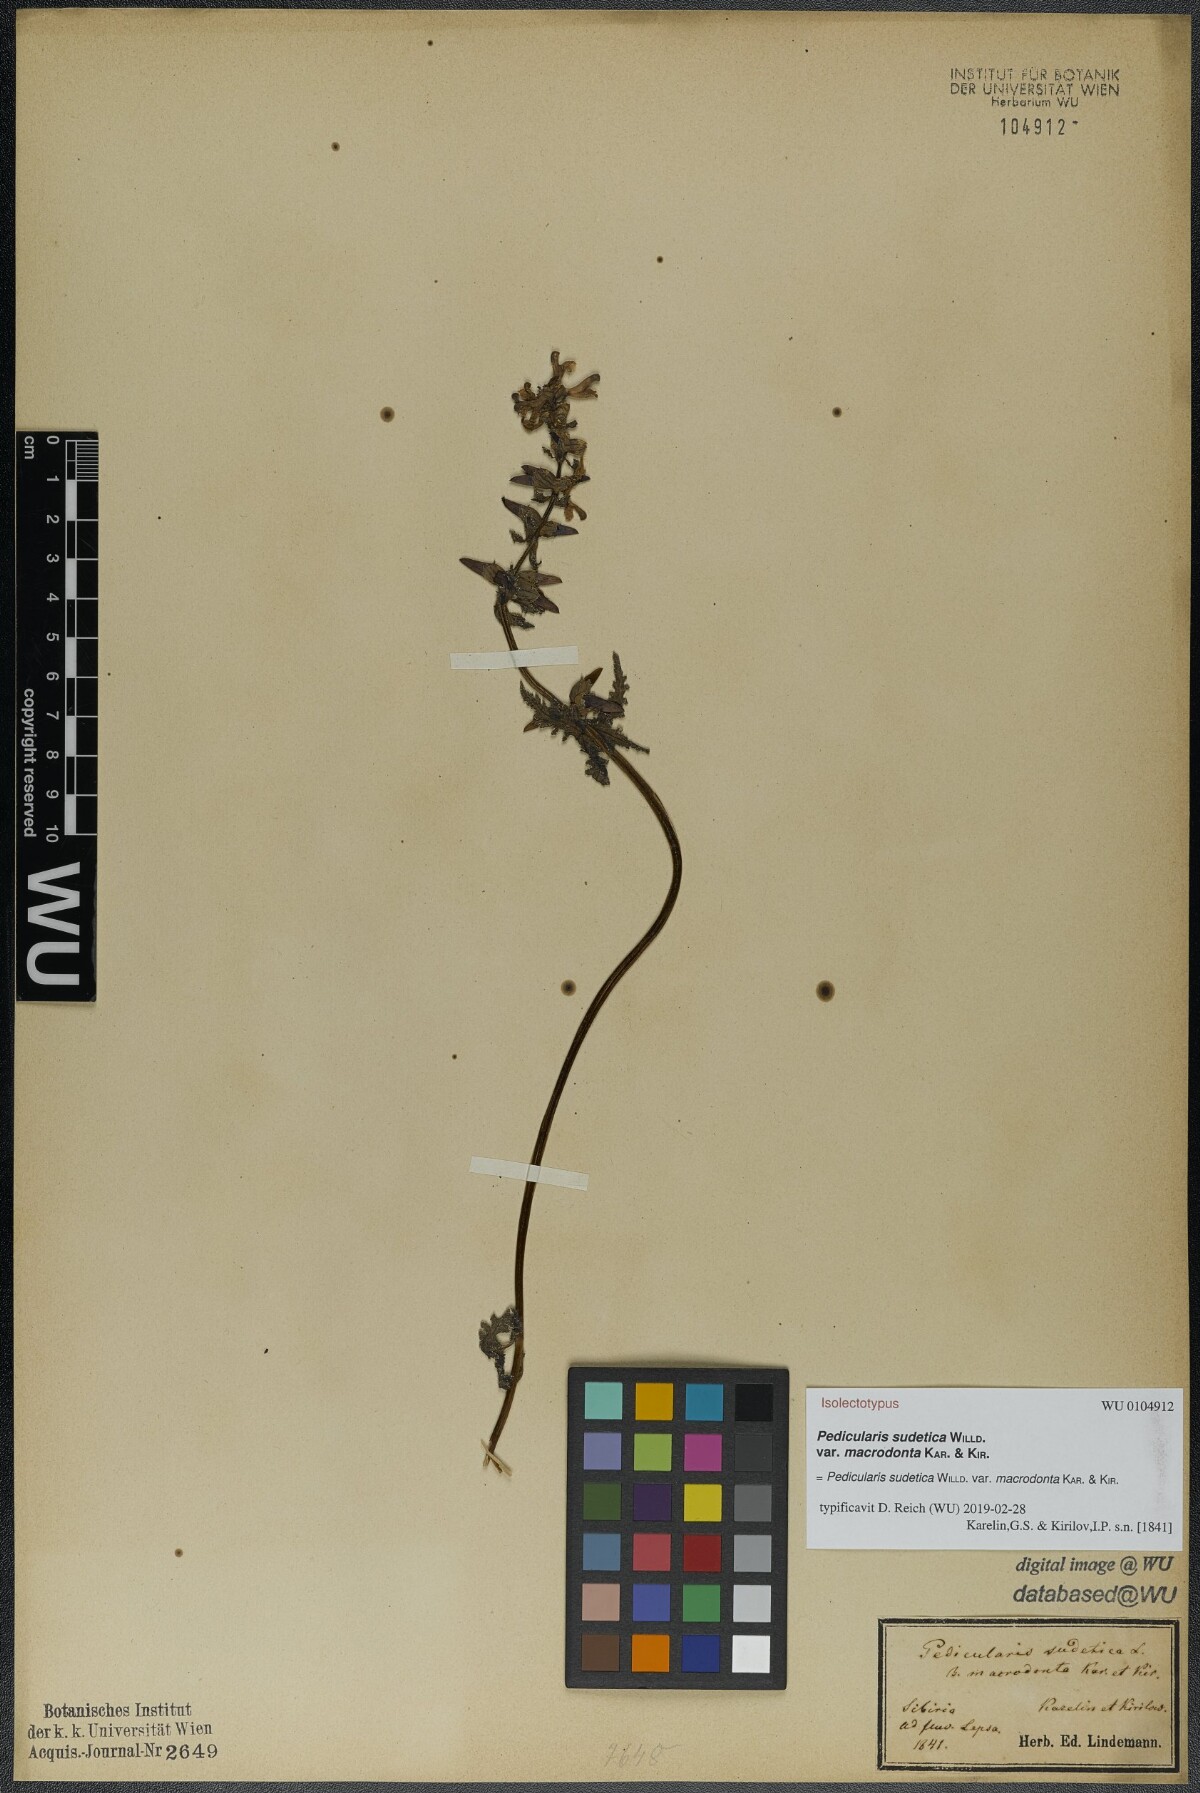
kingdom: Plantae
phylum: Tracheophyta
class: Magnoliopsida
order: Lamiales
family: Orobanchaceae
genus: Pedicularis
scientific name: Pedicularis sudetica
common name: Sudeten lousewort
